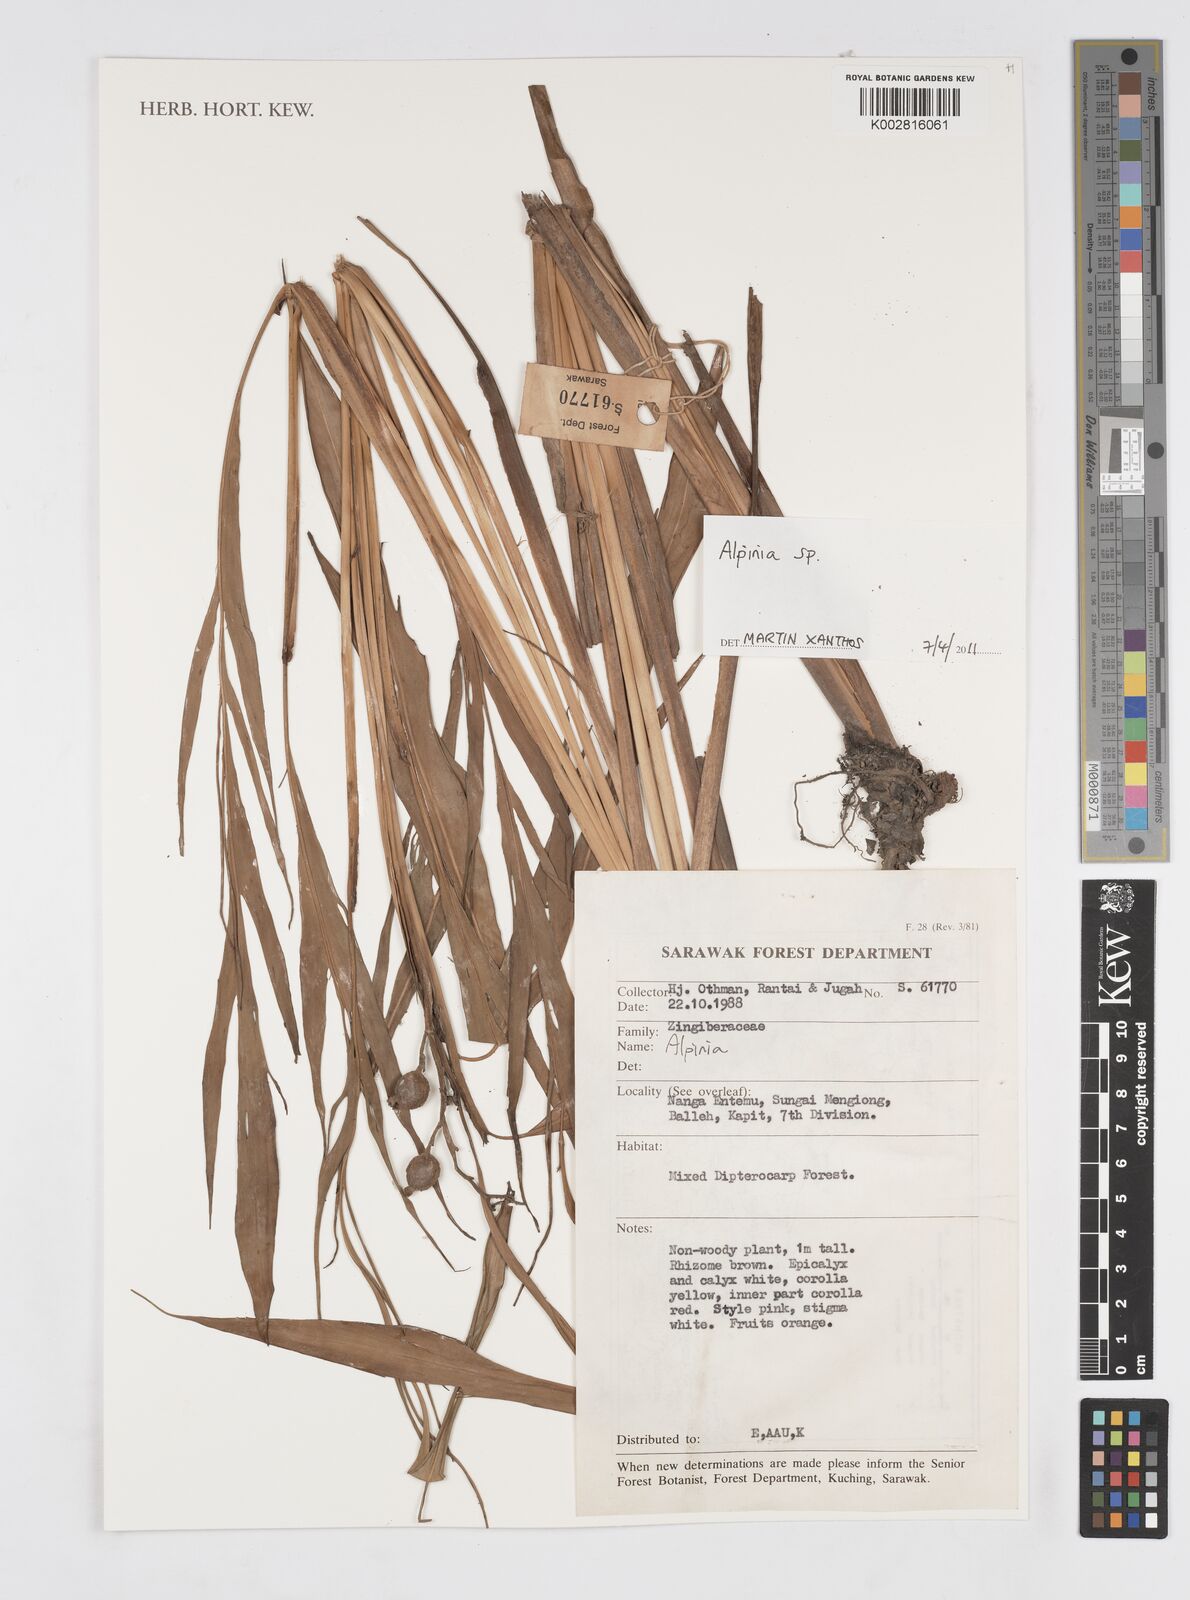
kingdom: Plantae
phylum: Tracheophyta
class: Liliopsida
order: Zingiberales
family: Zingiberaceae
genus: Alpinia
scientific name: Alpinia
